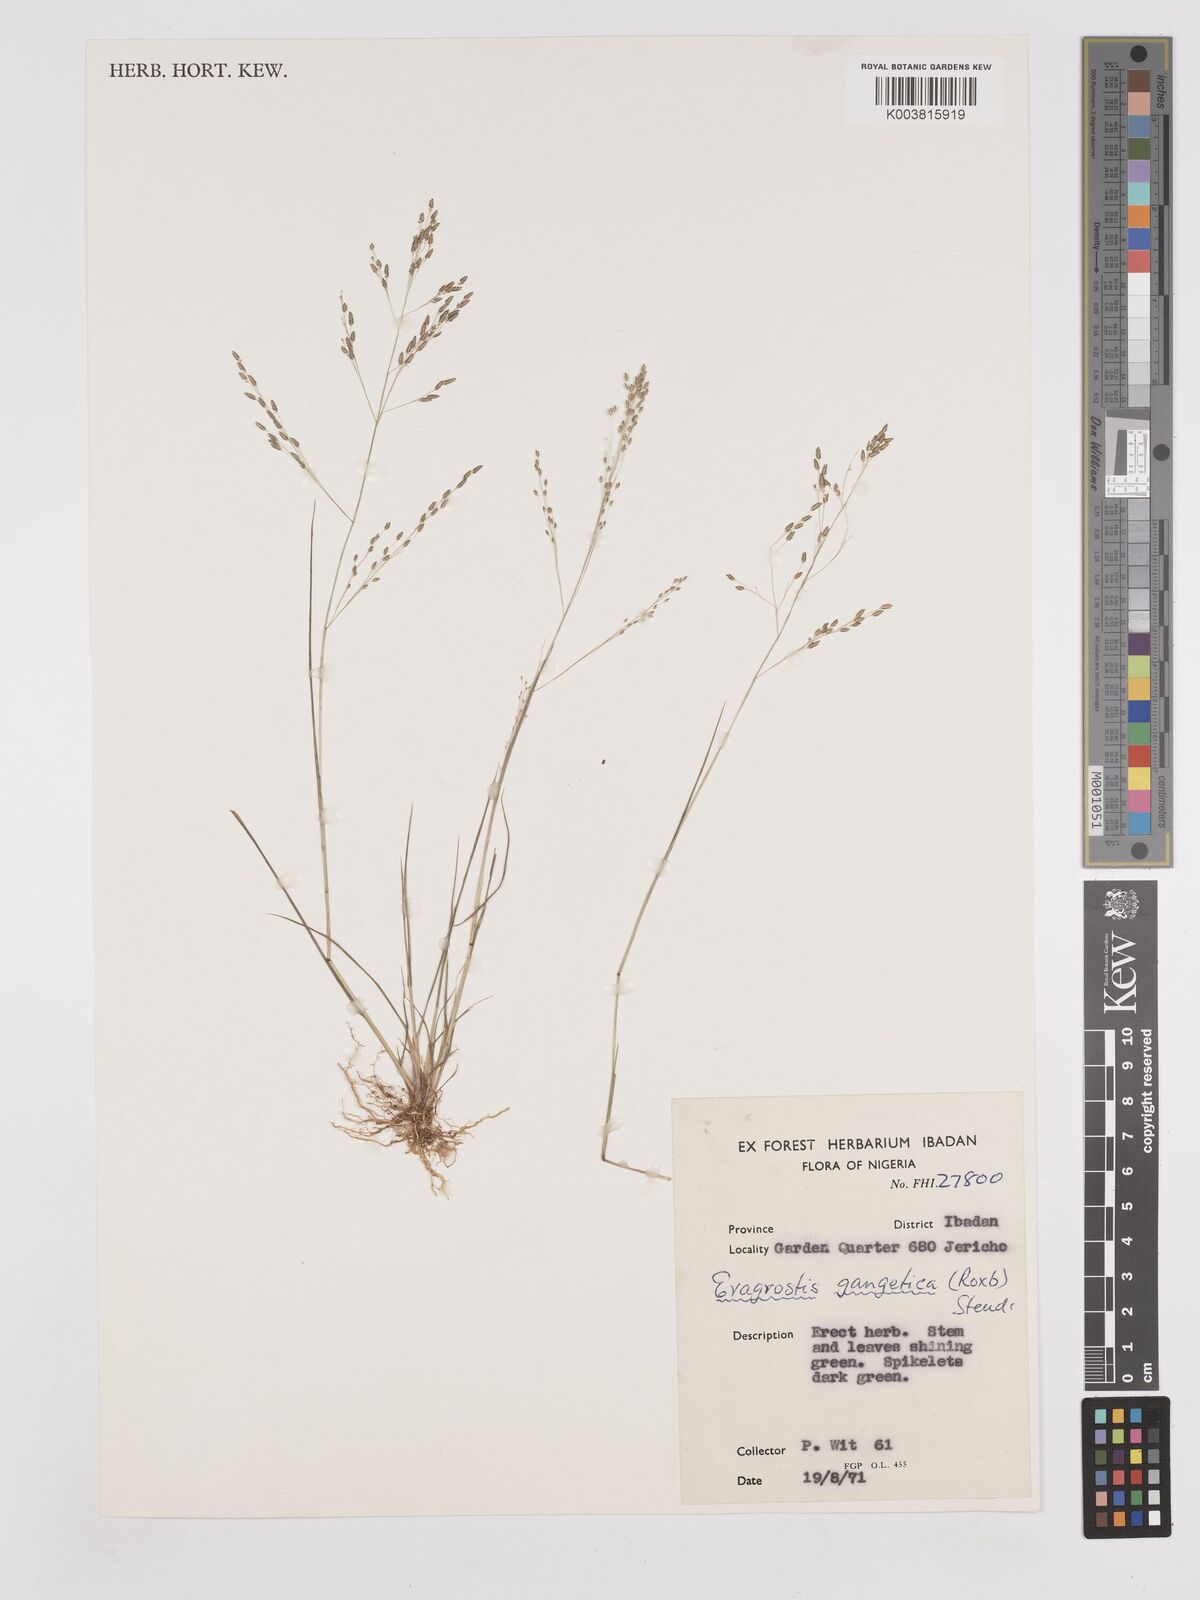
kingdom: Plantae
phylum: Tracheophyta
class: Liliopsida
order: Poales
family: Poaceae
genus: Eragrostis
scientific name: Eragrostis gangetica
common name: Slimflower lovegrass
